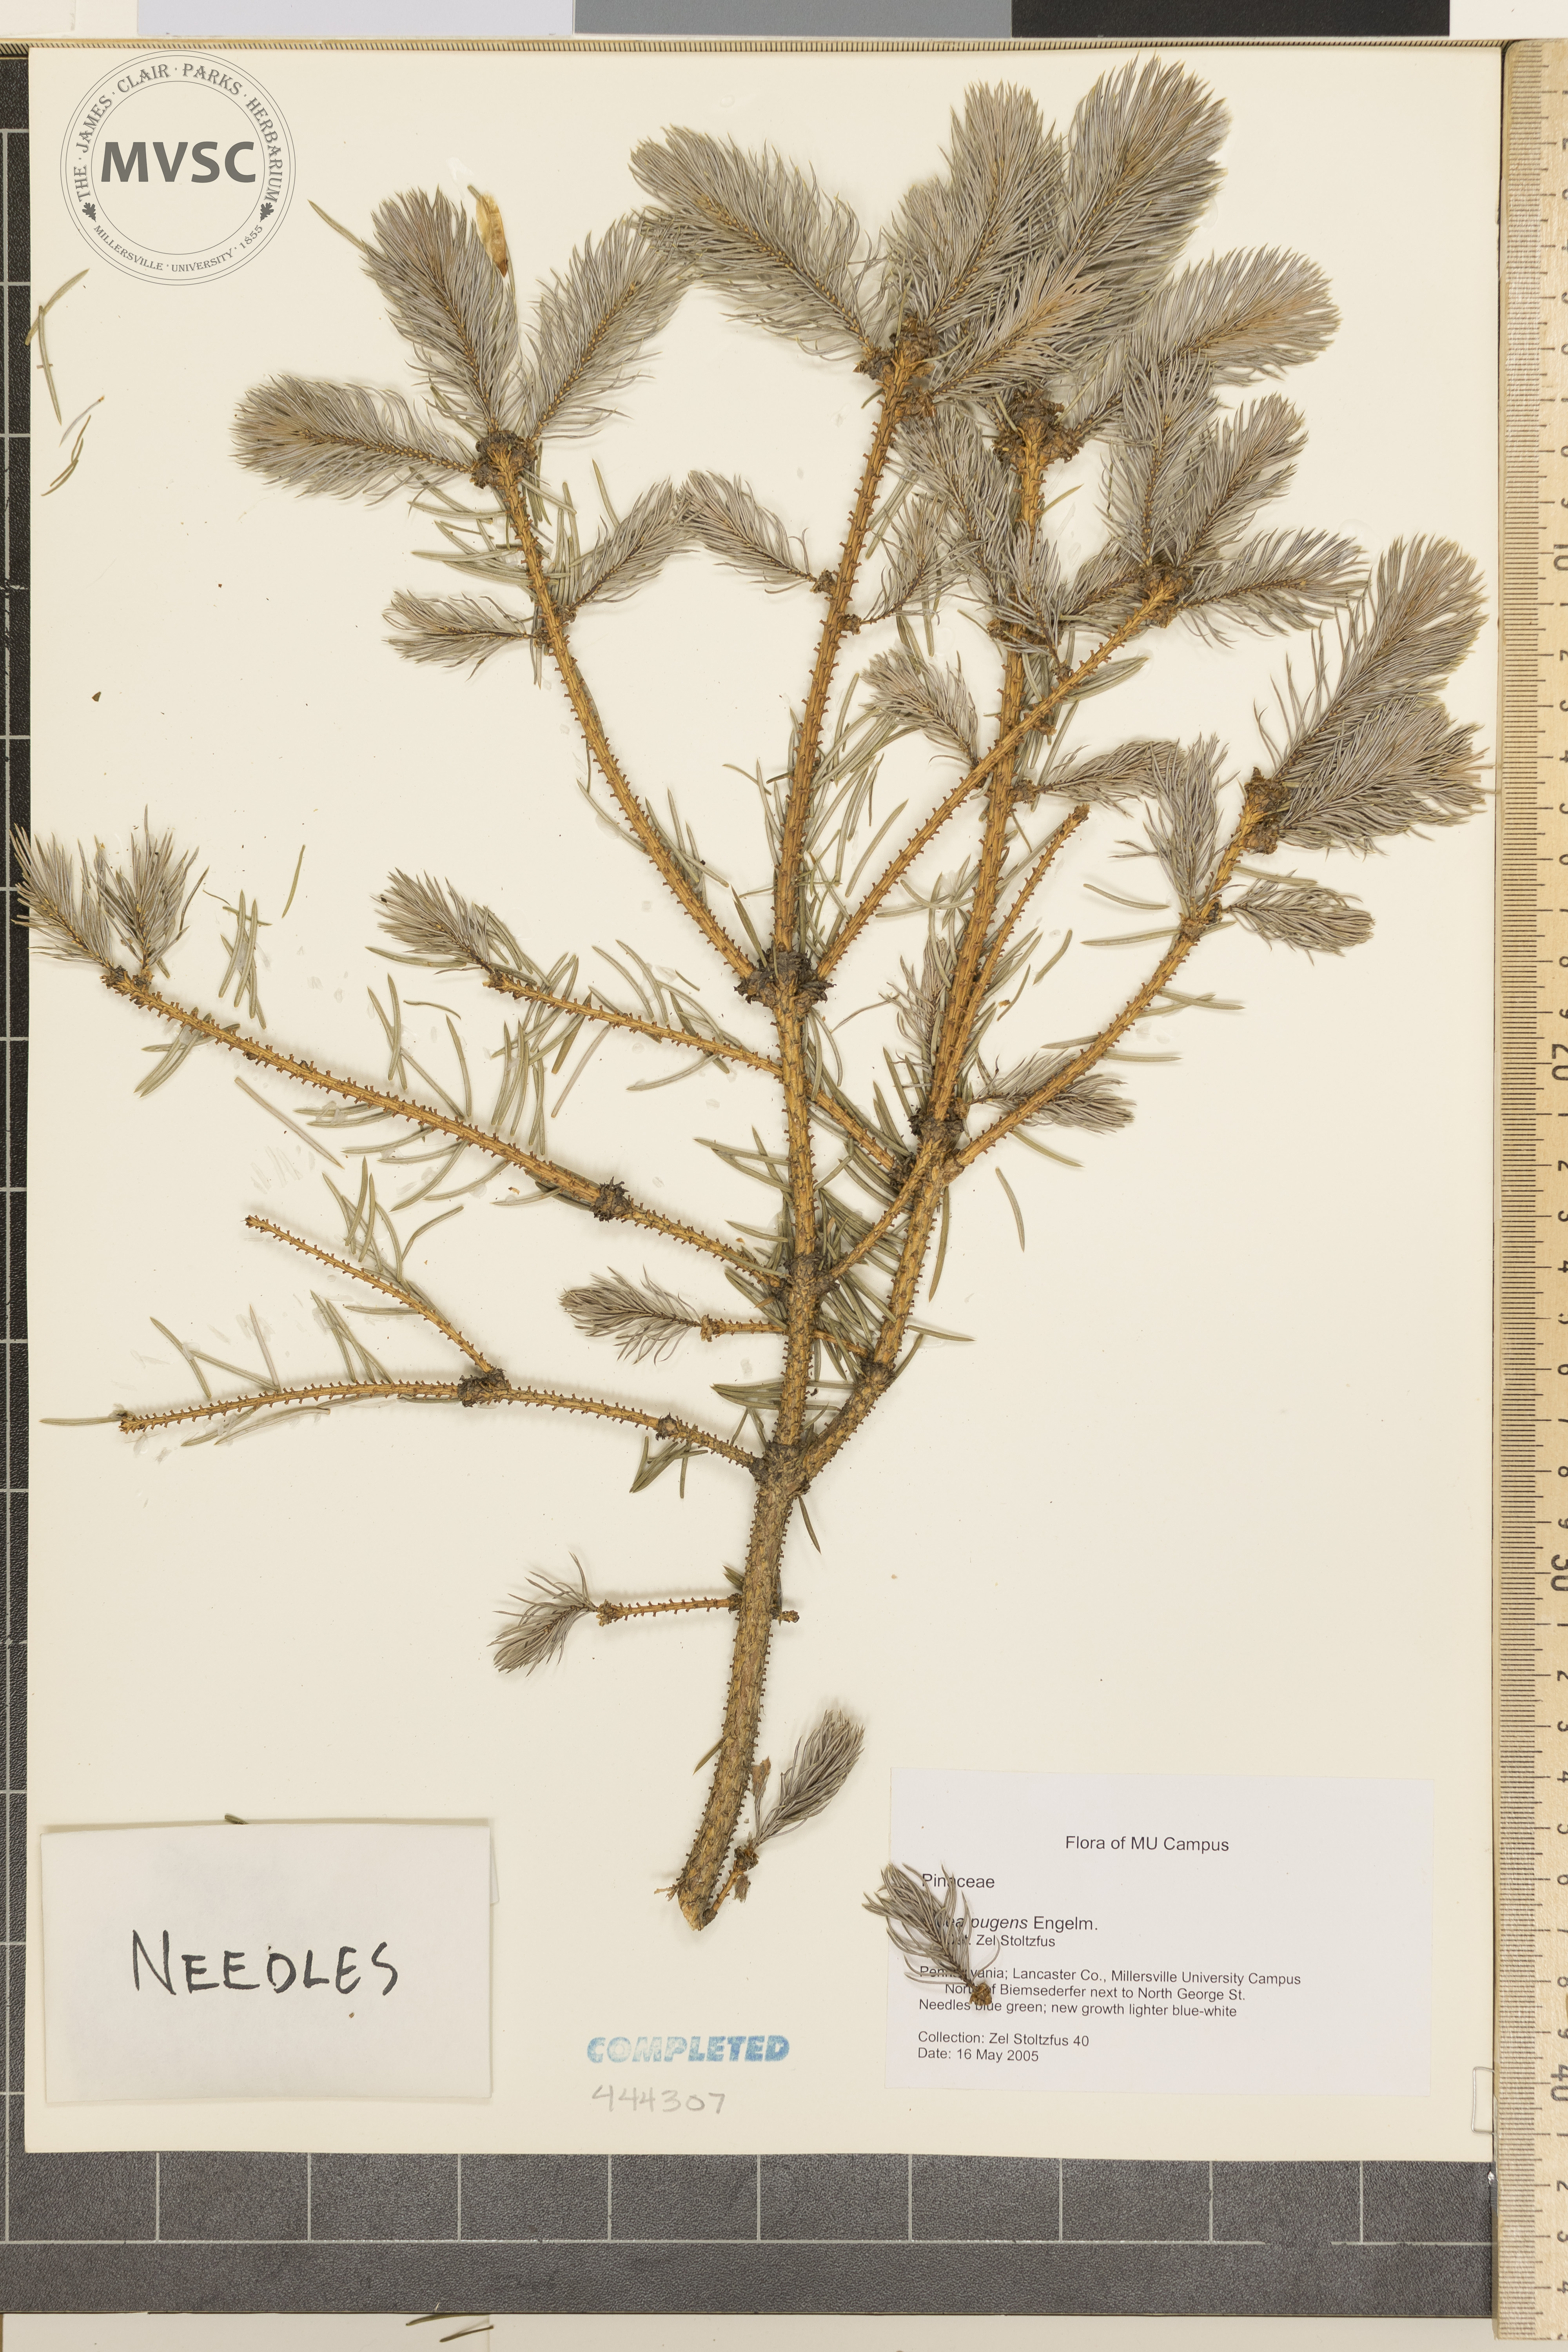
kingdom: Plantae
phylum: Tracheophyta
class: Pinopsida
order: Pinales
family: Pinaceae
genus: Picea
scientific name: Picea pungens
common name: Colorado Blue Spruce
